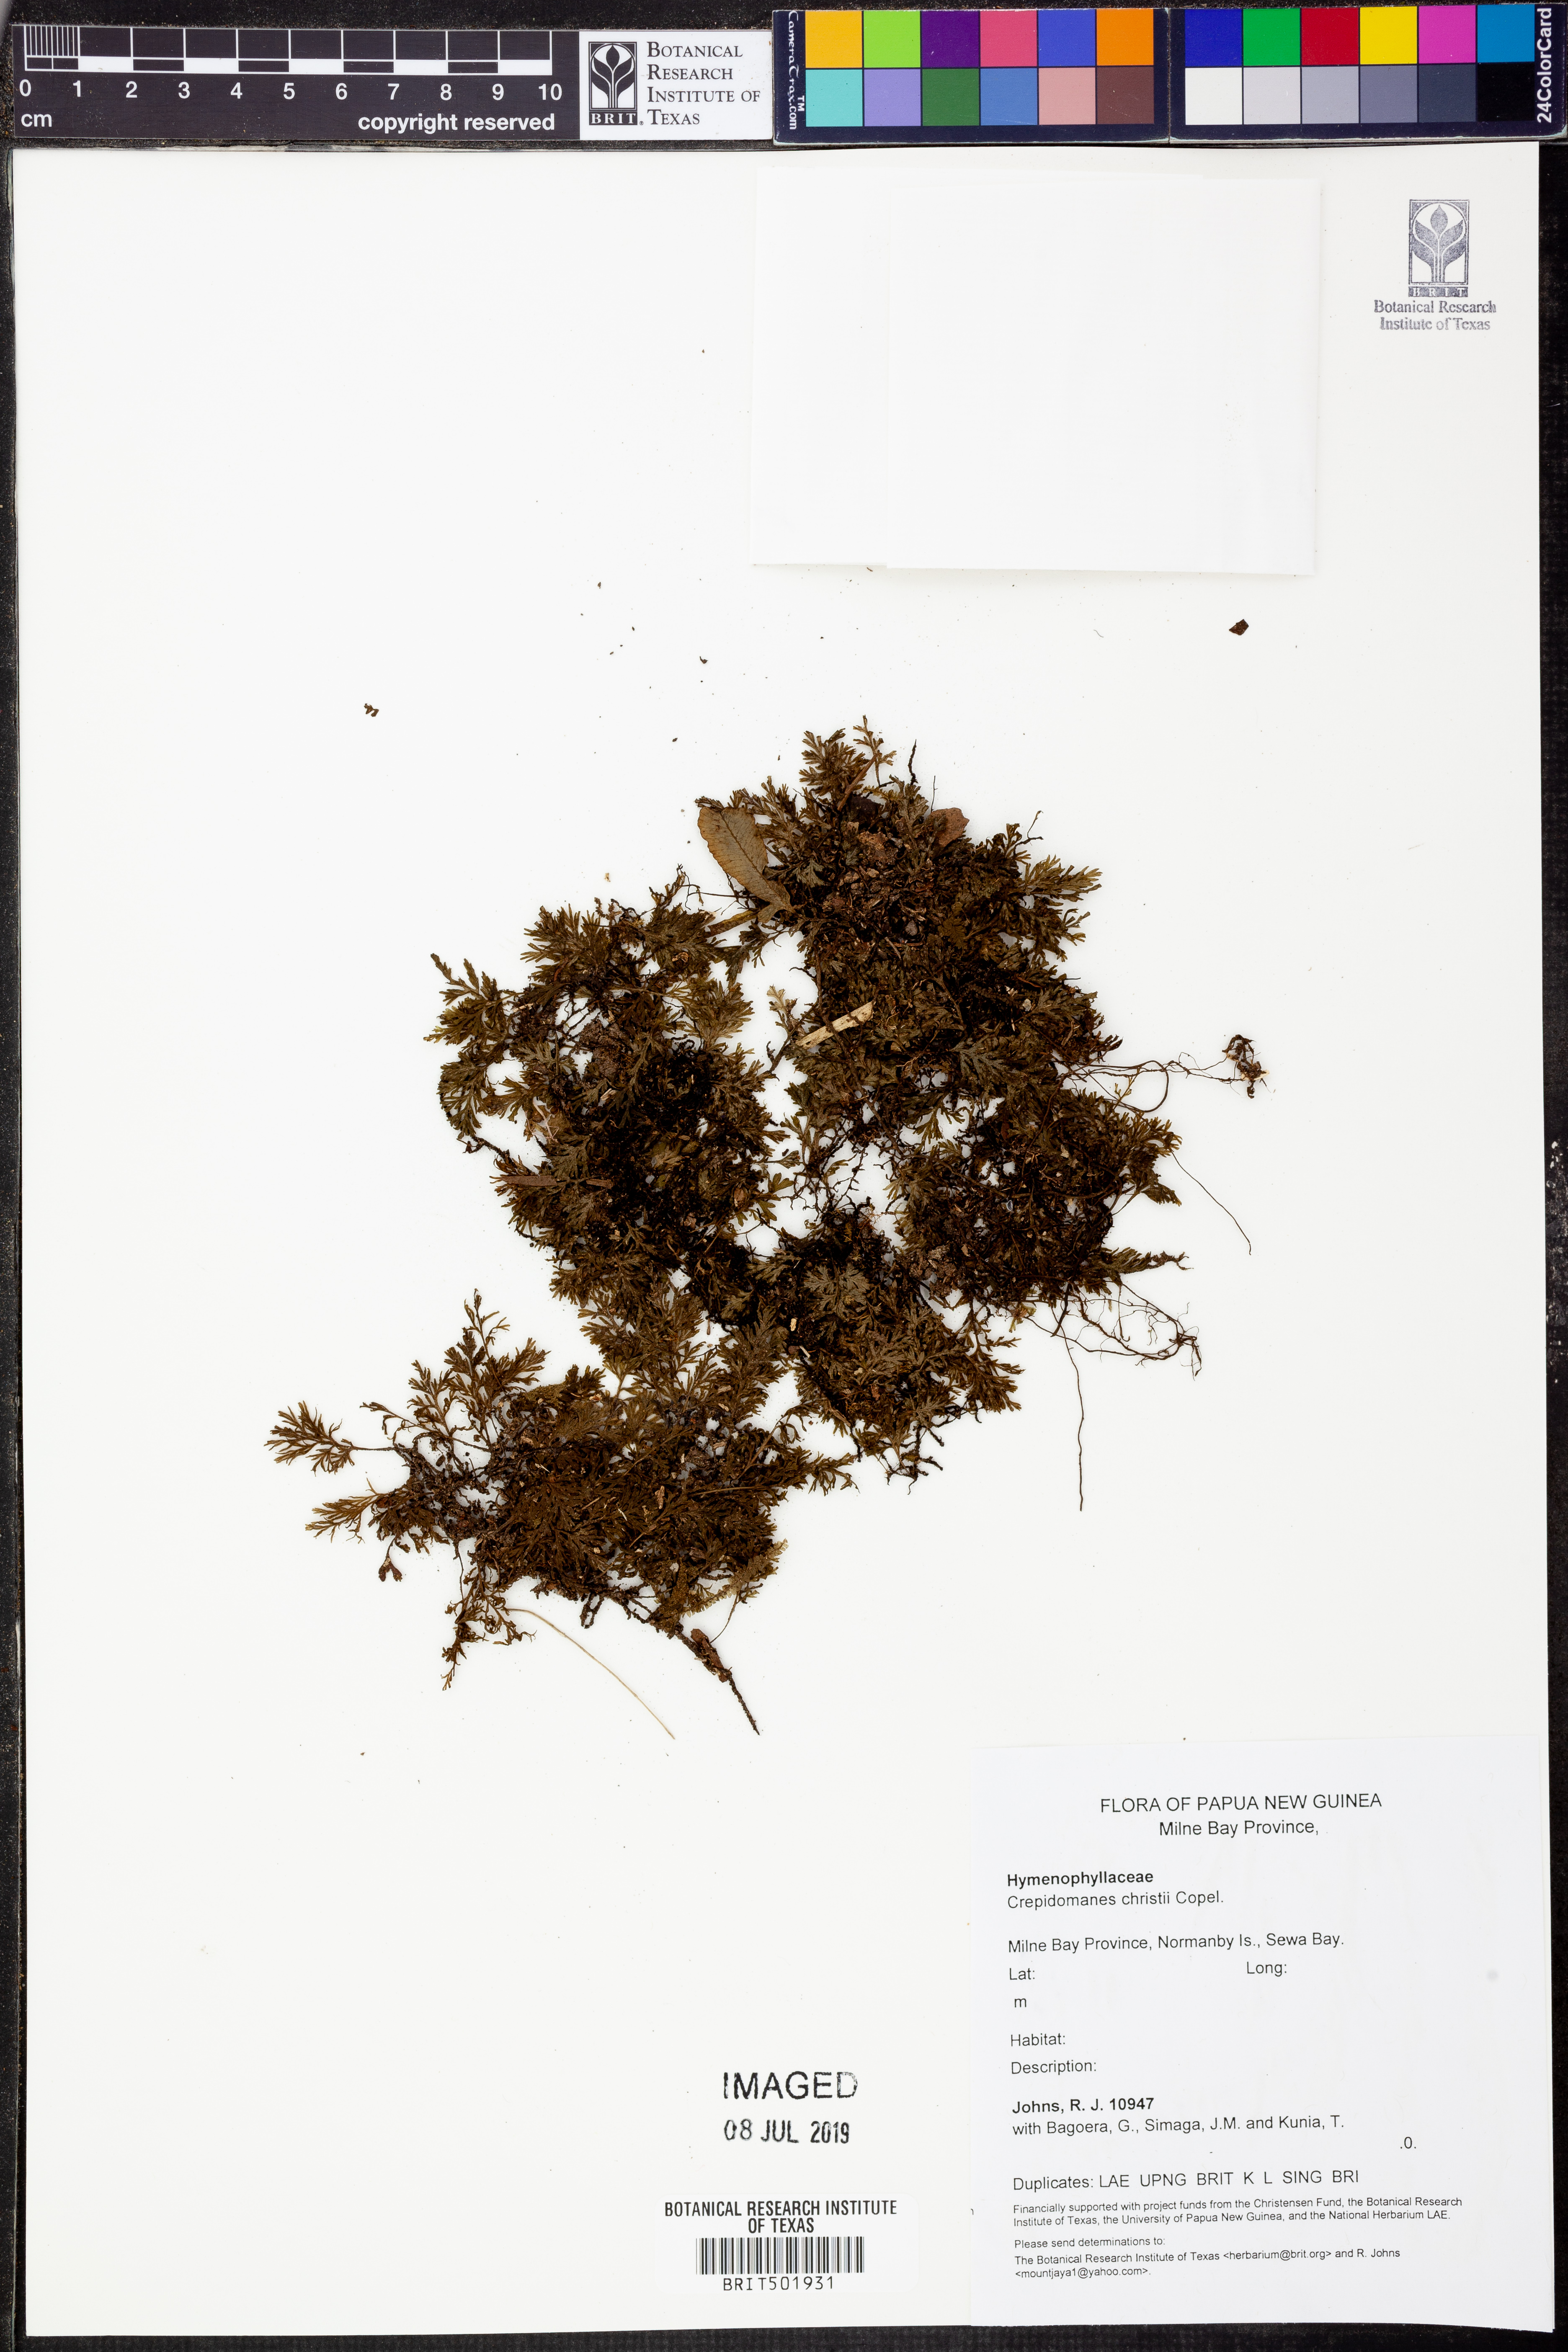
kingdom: Plantae
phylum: Tracheophyta
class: Polypodiopsida
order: Hymenophyllales
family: Hymenophyllaceae
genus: Crepidomanes
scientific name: Crepidomanes christii
